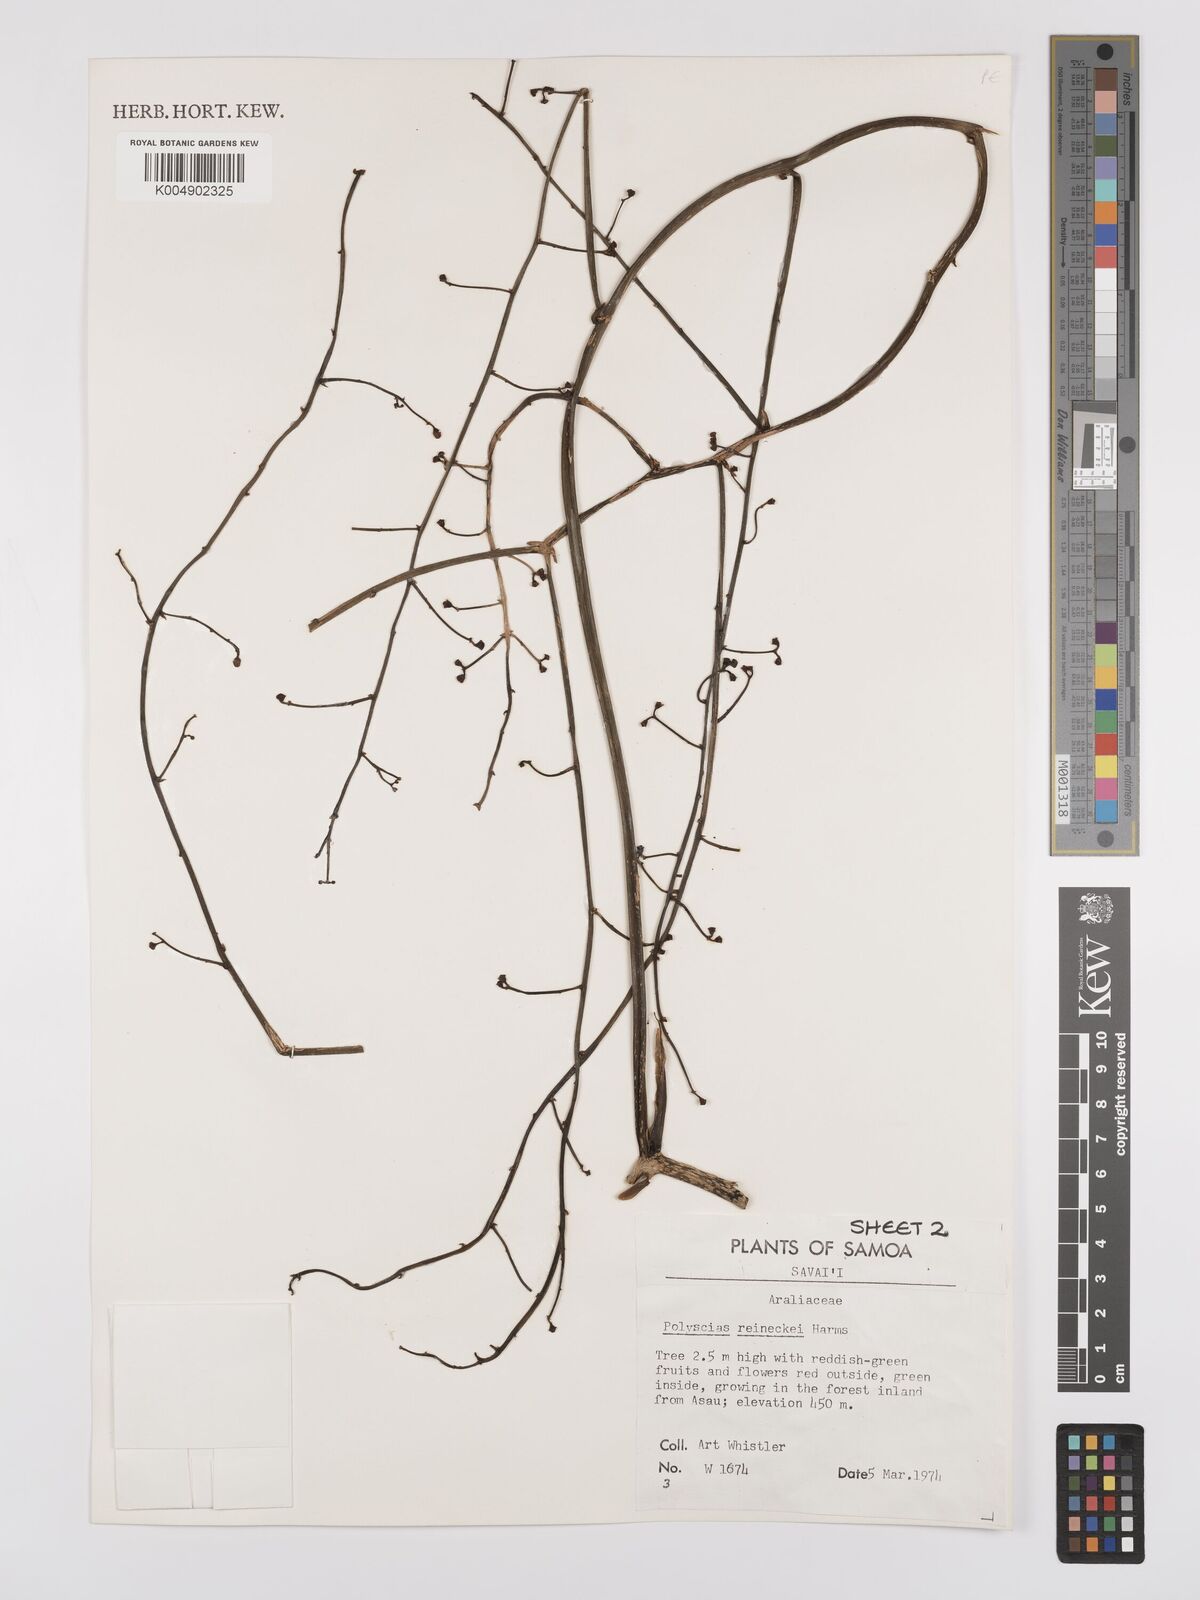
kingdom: Plantae
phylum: Tracheophyta
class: Magnoliopsida
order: Apiales
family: Araliaceae
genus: Polyscias
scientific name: Polyscias reineckei
